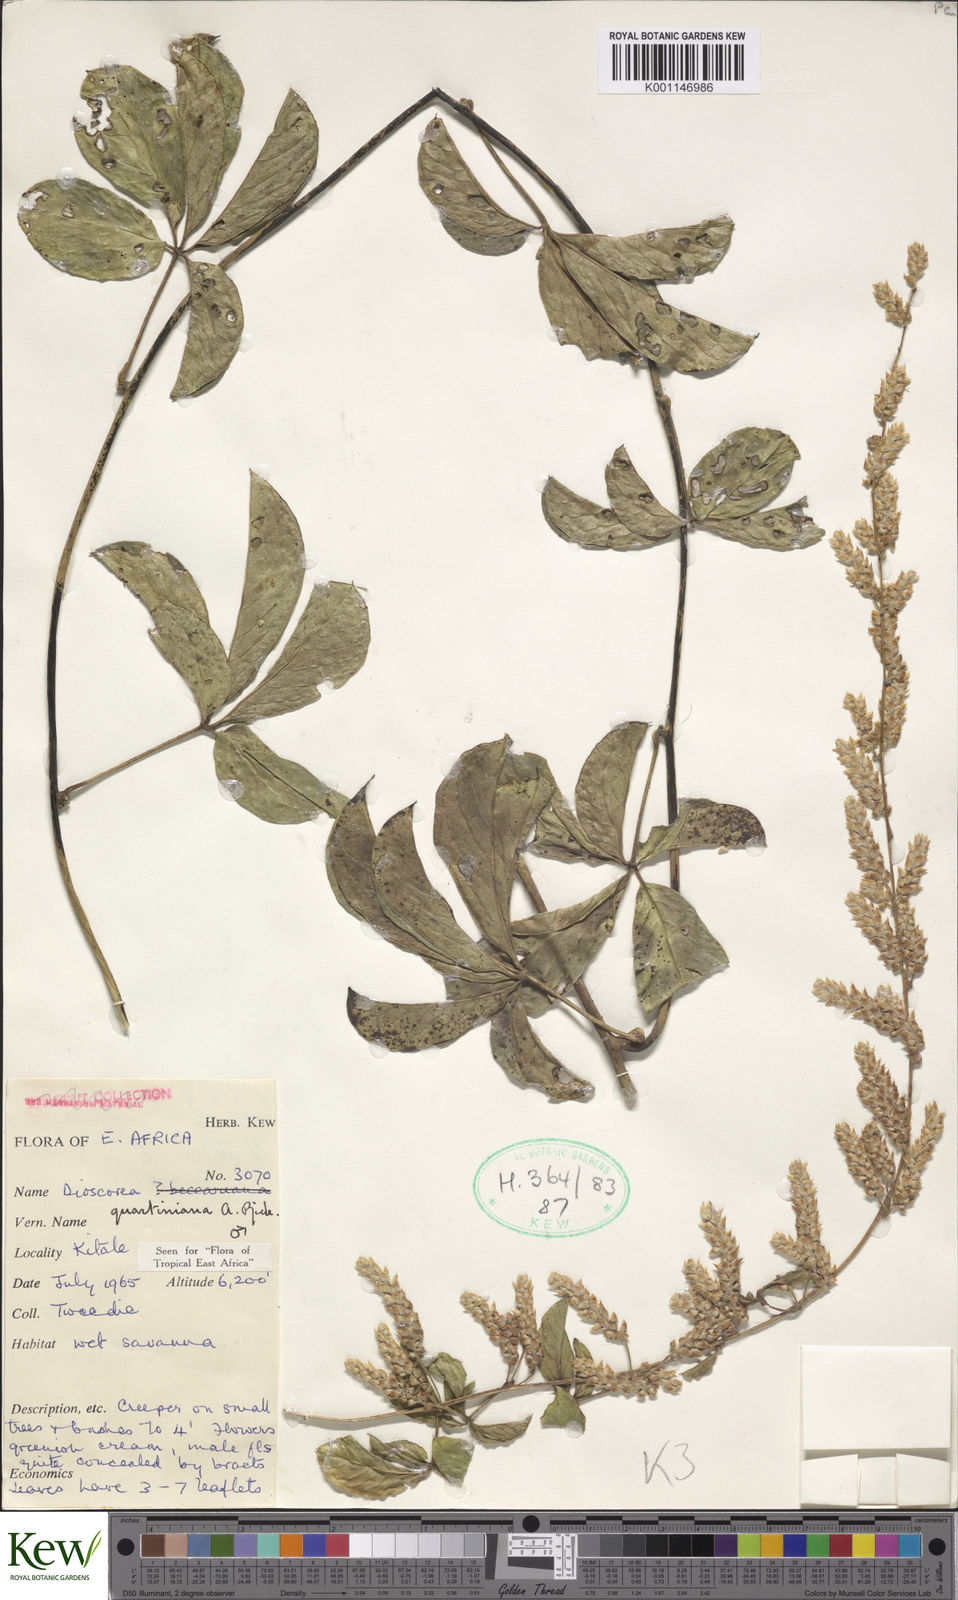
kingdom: Plantae
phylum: Tracheophyta
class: Liliopsida
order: Dioscoreales
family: Dioscoreaceae
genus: Dioscorea
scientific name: Dioscorea quartiniana
